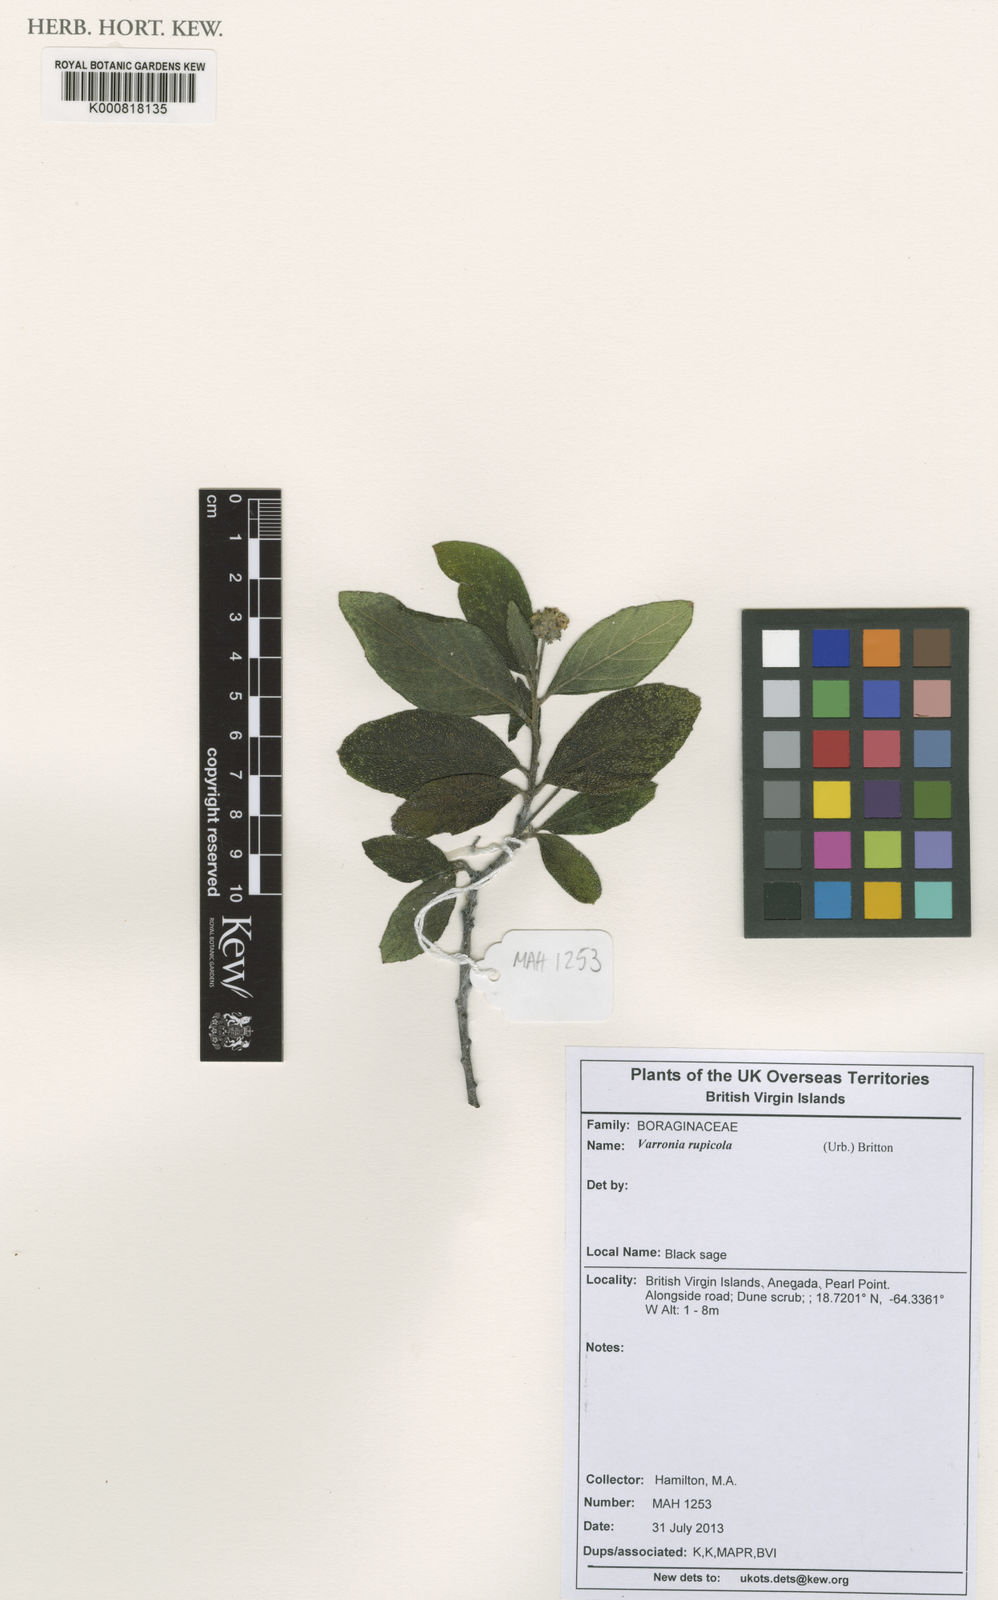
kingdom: Plantae
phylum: Tracheophyta
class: Magnoliopsida
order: Boraginales
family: Cordiaceae
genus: Varronia
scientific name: Varronia rupicola
